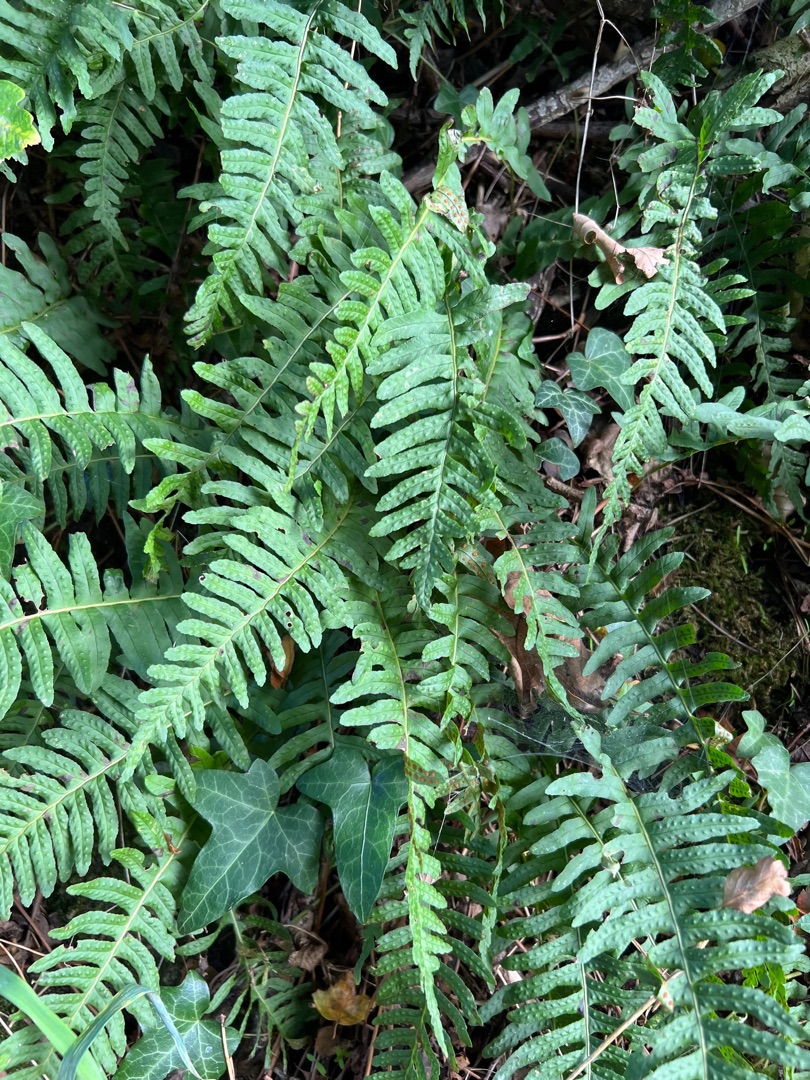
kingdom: Plantae
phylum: Tracheophyta
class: Polypodiopsida
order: Polypodiales
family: Polypodiaceae
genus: Polypodium
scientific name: Polypodium vulgare
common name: Almindelig engelsød
